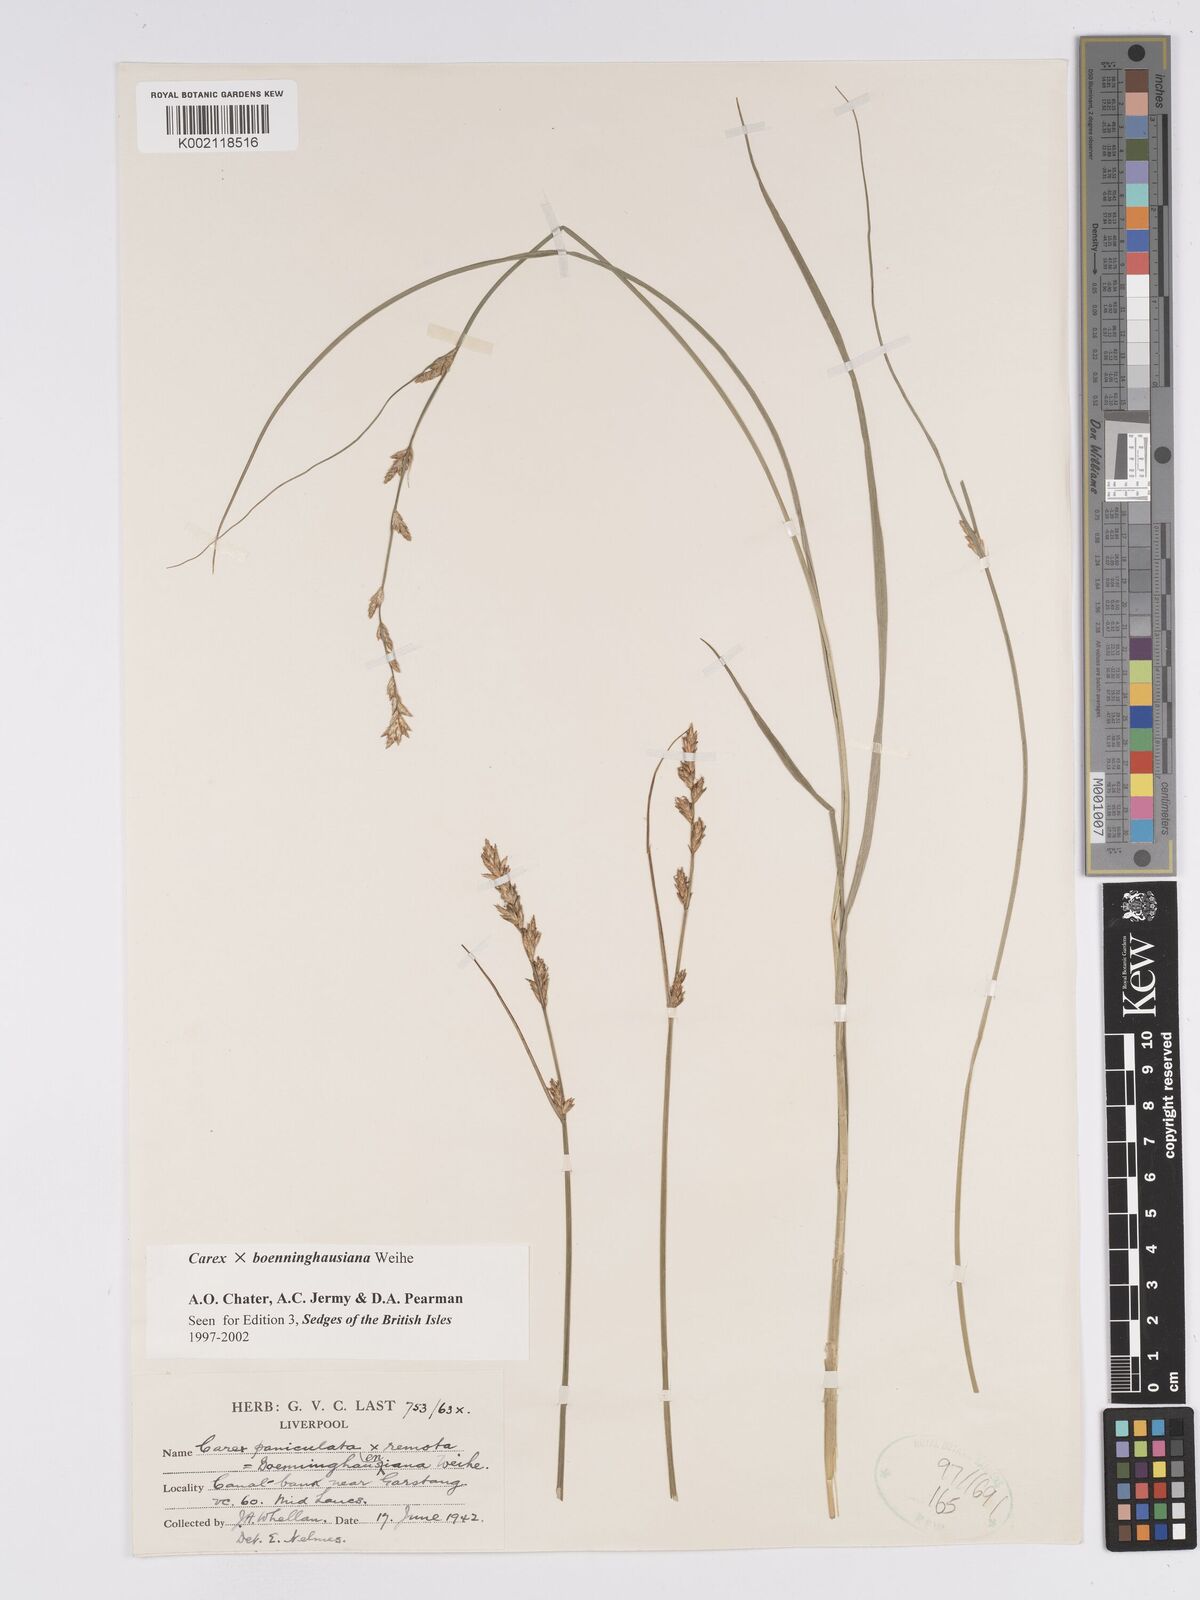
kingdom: Plantae
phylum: Tracheophyta
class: Liliopsida
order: Poales
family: Cyperaceae
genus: Carex
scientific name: Carex boenninghausiana
